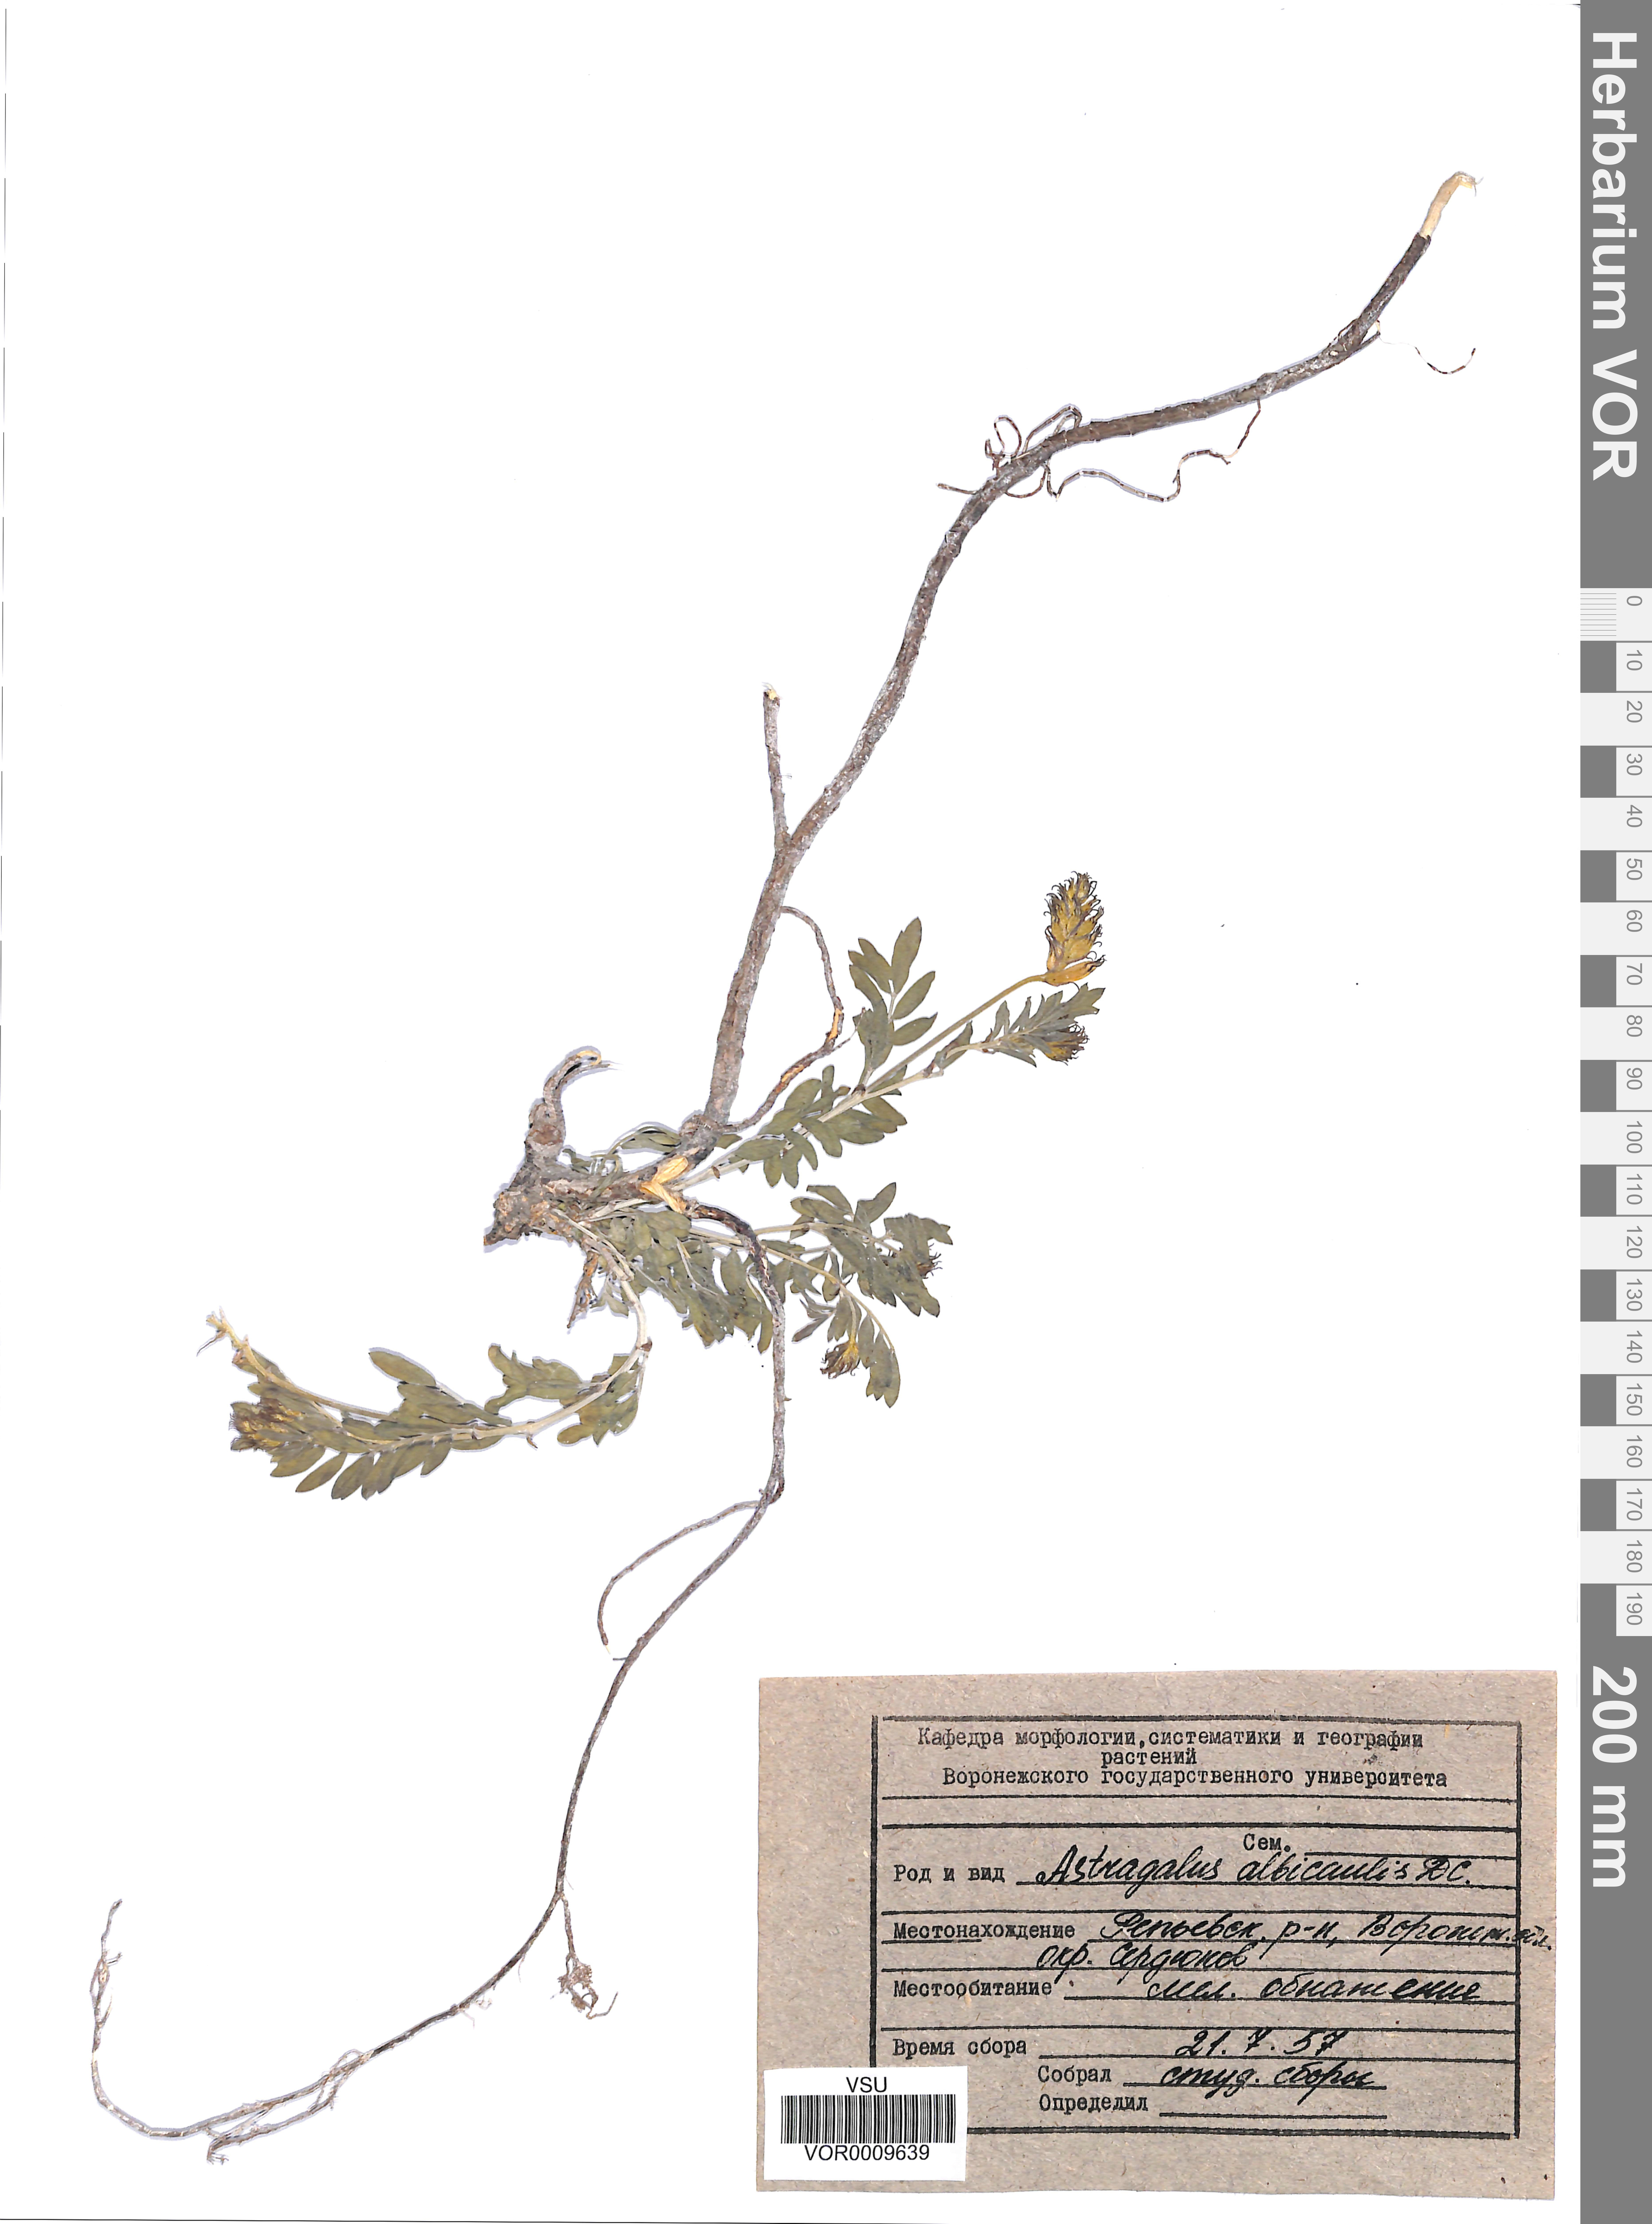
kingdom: Plantae
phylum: Tracheophyta
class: Magnoliopsida
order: Fabales
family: Fabaceae
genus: Astragalus
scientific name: Astragalus albicaulis
